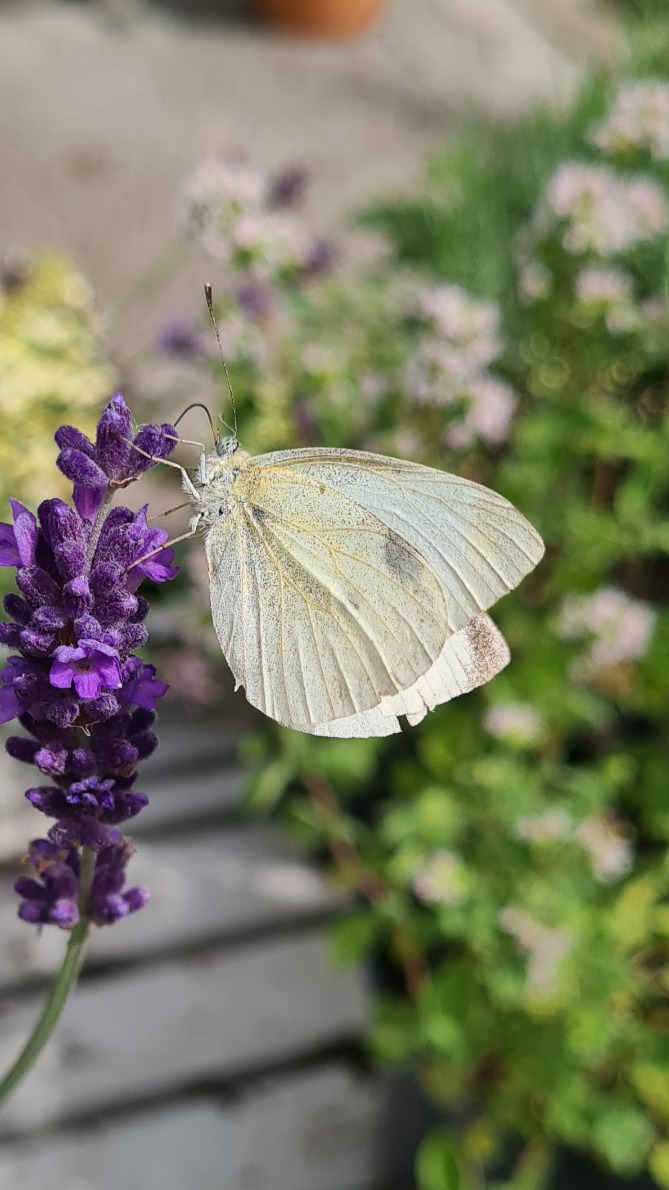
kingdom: Animalia
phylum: Arthropoda
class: Insecta
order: Lepidoptera
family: Pieridae
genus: Pieris
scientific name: Pieris rapae
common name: Lille kålsommerfugl
